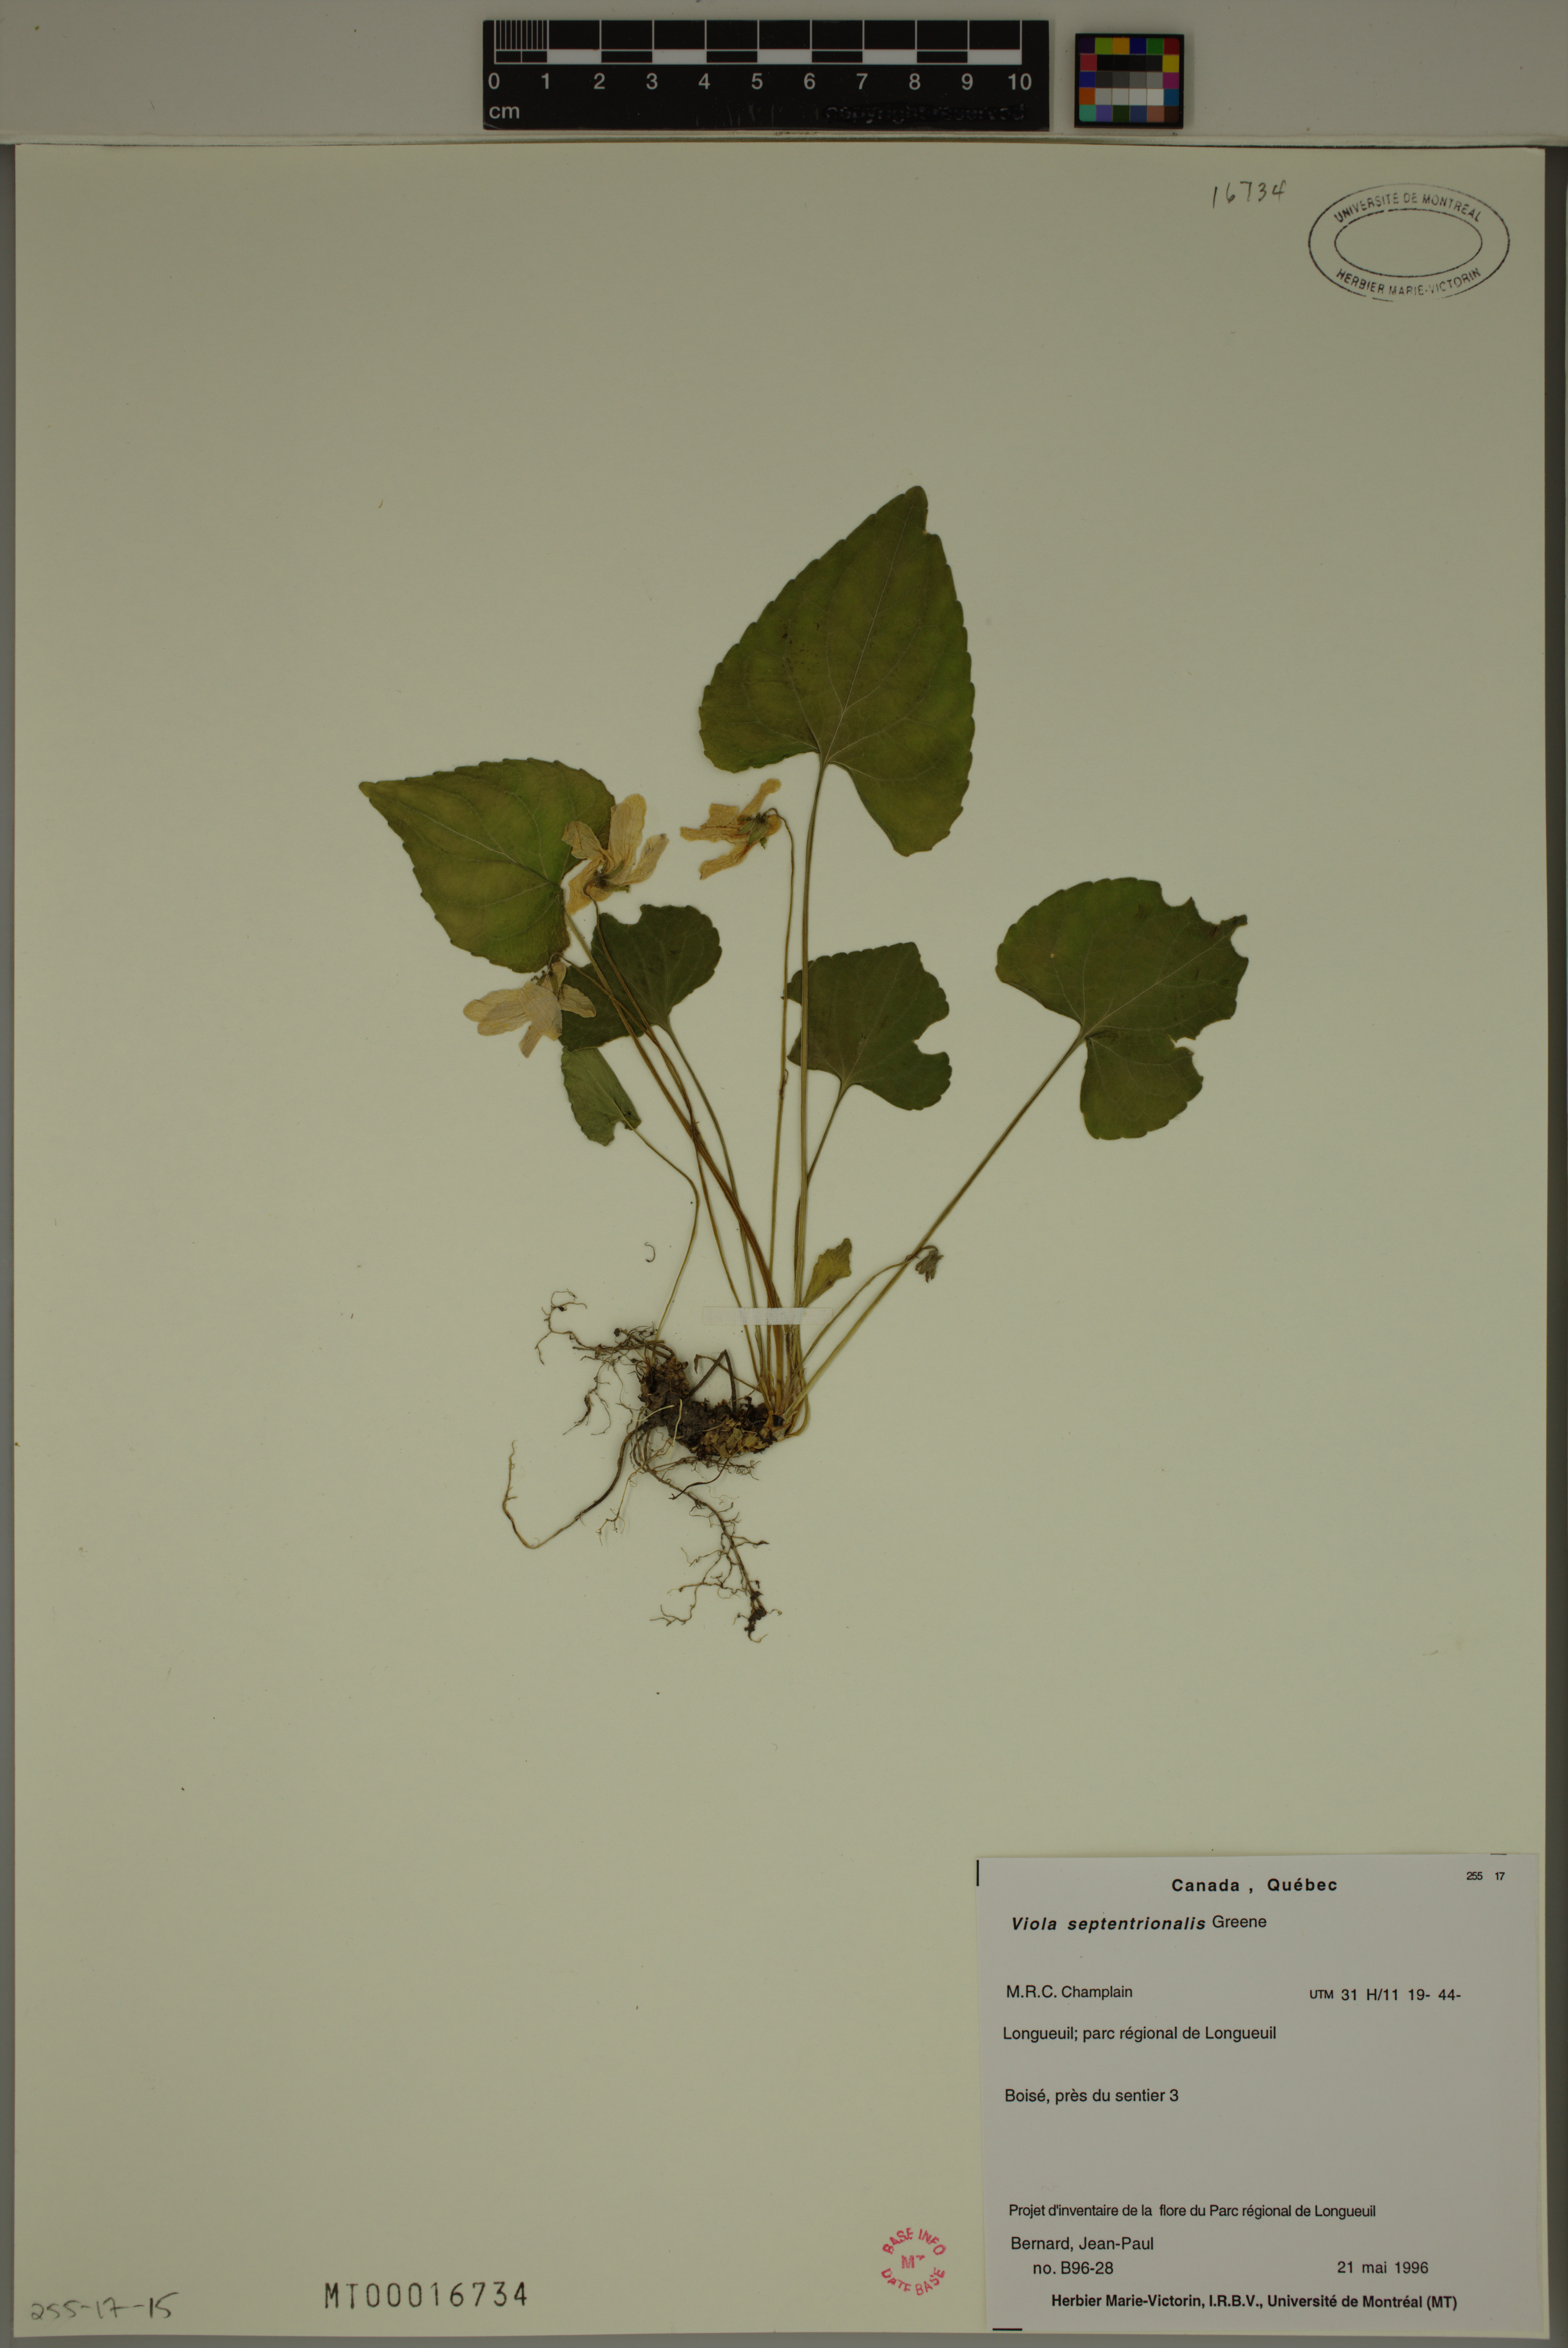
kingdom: Plantae
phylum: Tracheophyta
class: Magnoliopsida
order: Malpighiales
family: Violaceae
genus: Viola
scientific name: Viola sororia
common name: Dooryard violet
